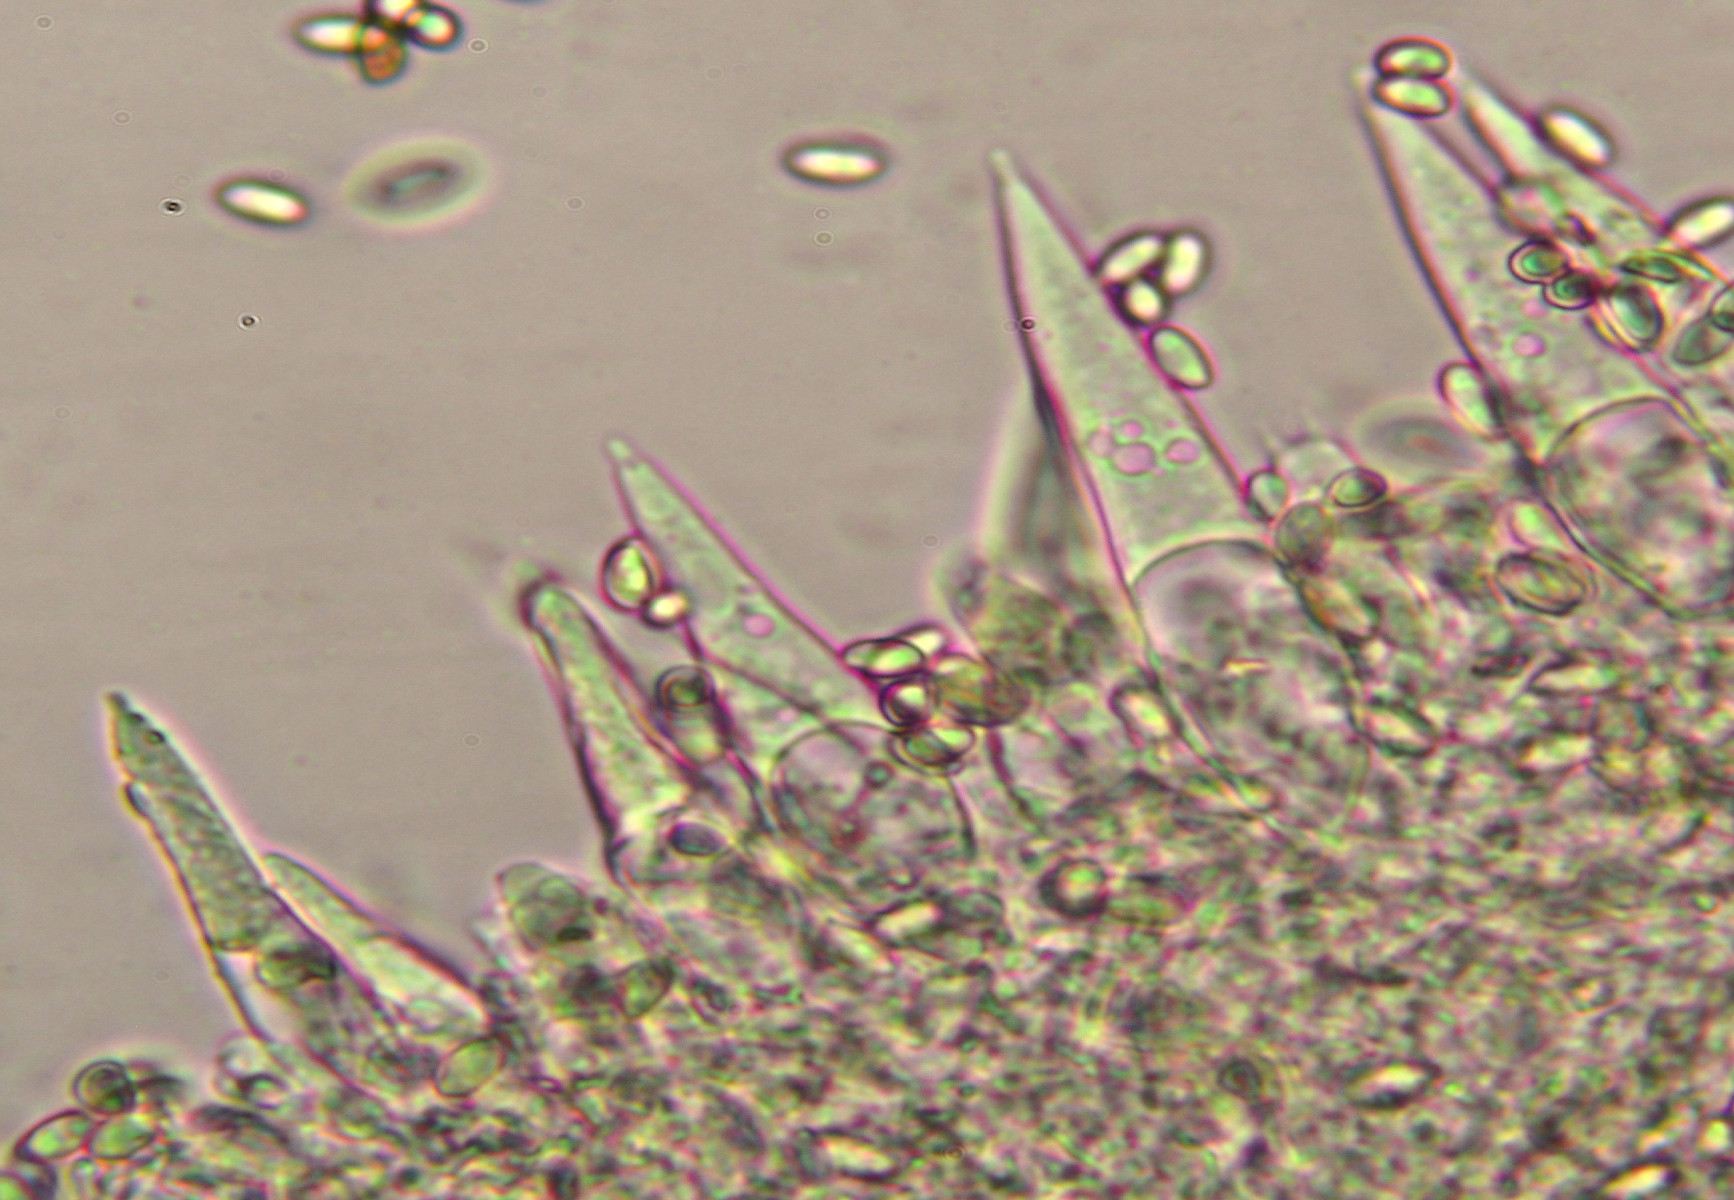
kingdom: Fungi
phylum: Basidiomycota
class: Agaricomycetes
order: Agaricales
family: Macrocystidiaceae
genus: Macrocystidia
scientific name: Macrocystidia cucumis
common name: Cucumber cap
